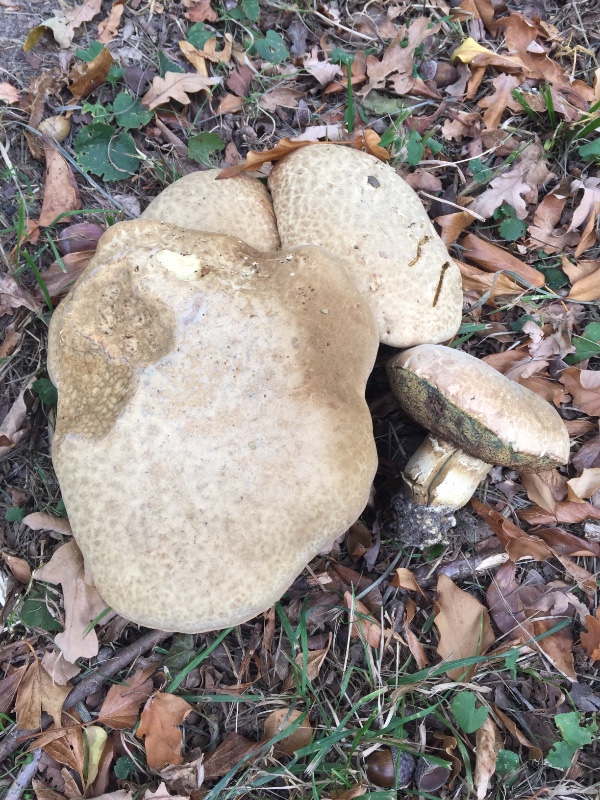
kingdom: Fungi
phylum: Basidiomycota
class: Agaricomycetes
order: Boletales
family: Boletaceae
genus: Caloboletus
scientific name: Caloboletus radicans
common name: rod-rørhat
